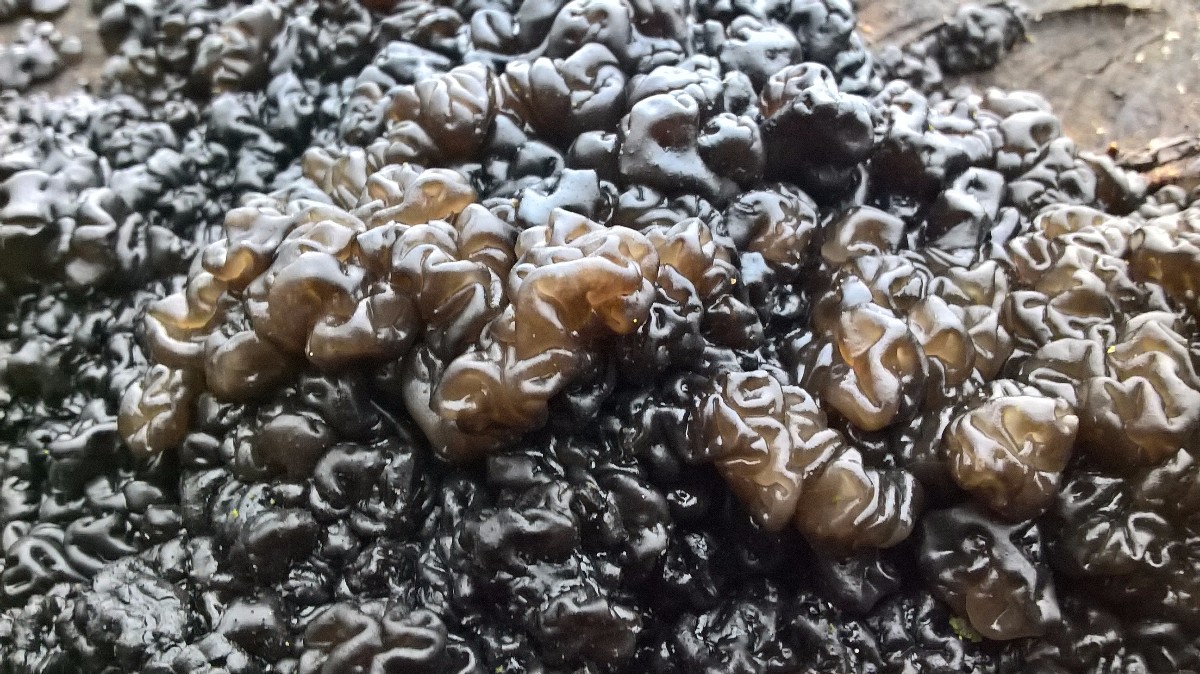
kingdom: Fungi
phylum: Basidiomycota
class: Agaricomycetes
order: Auriculariales
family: Auriculariaceae
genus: Exidia
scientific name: Exidia nigricans
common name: almindelig bævretop
